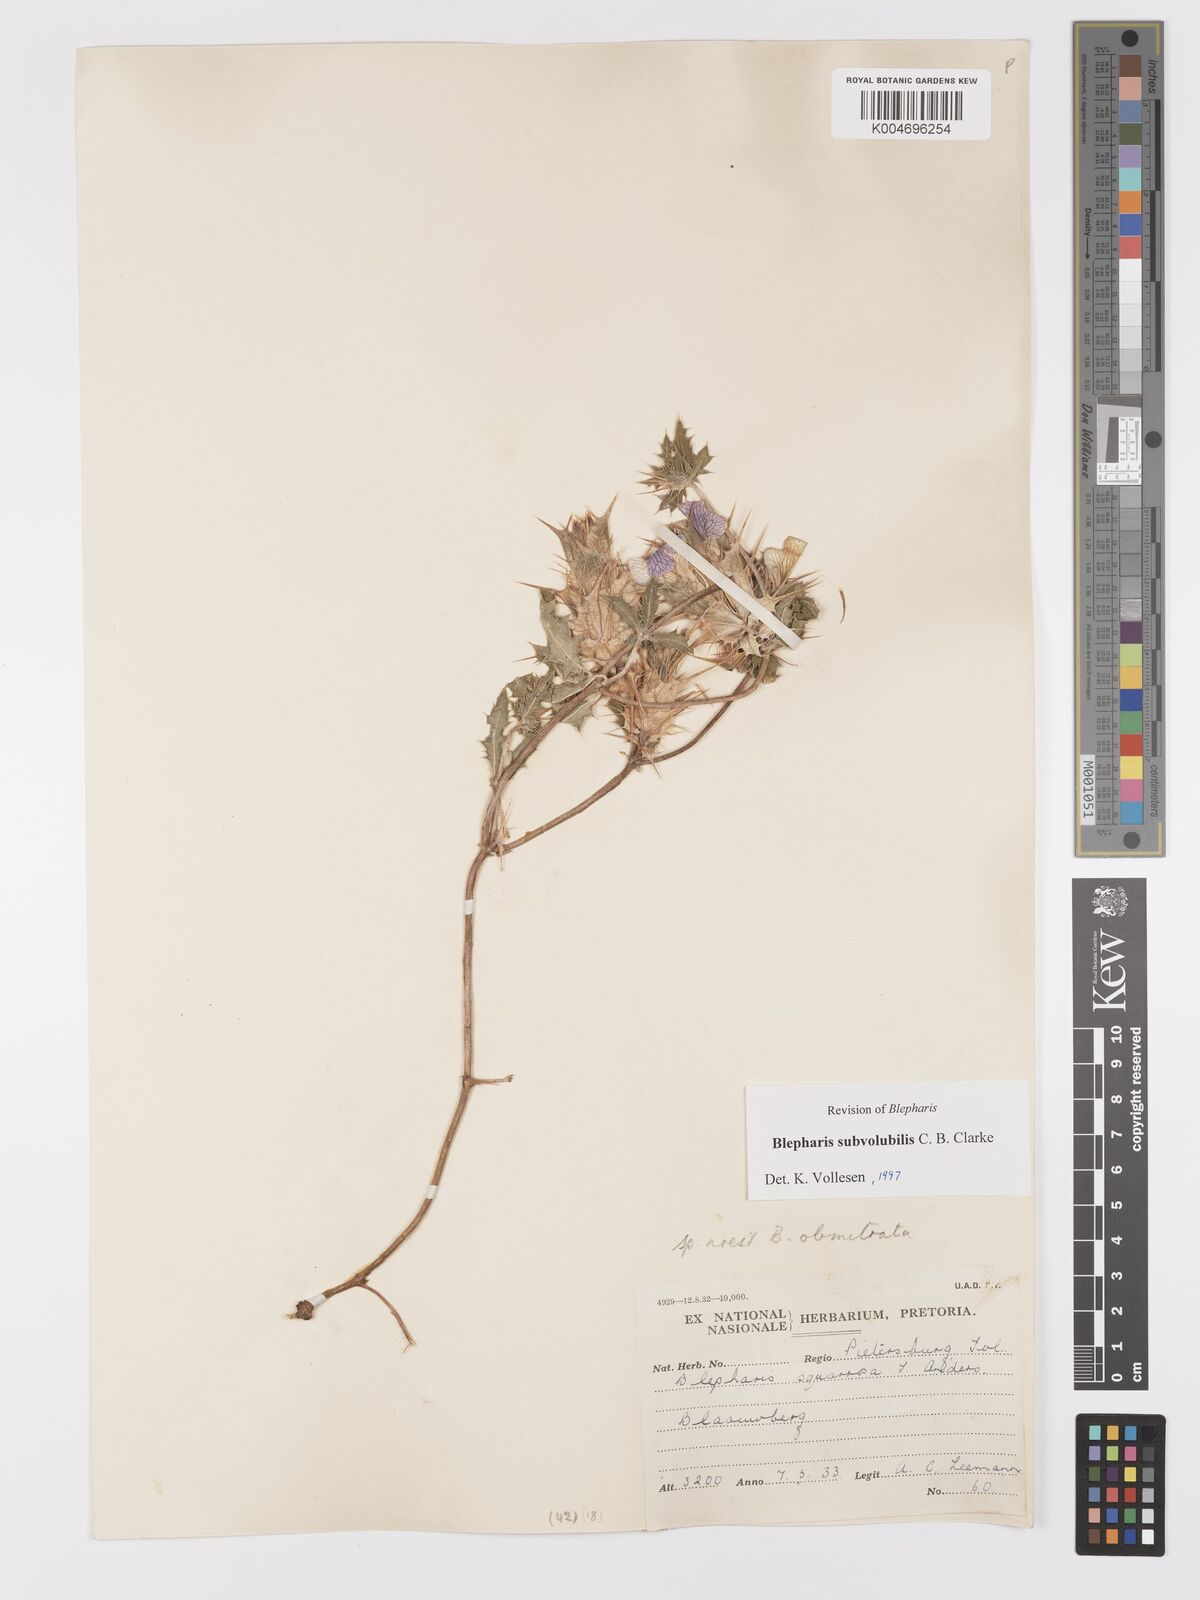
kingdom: Plantae
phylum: Tracheophyta
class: Magnoliopsida
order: Lamiales
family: Acanthaceae
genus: Blepharis
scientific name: Blepharis subvolubilis
